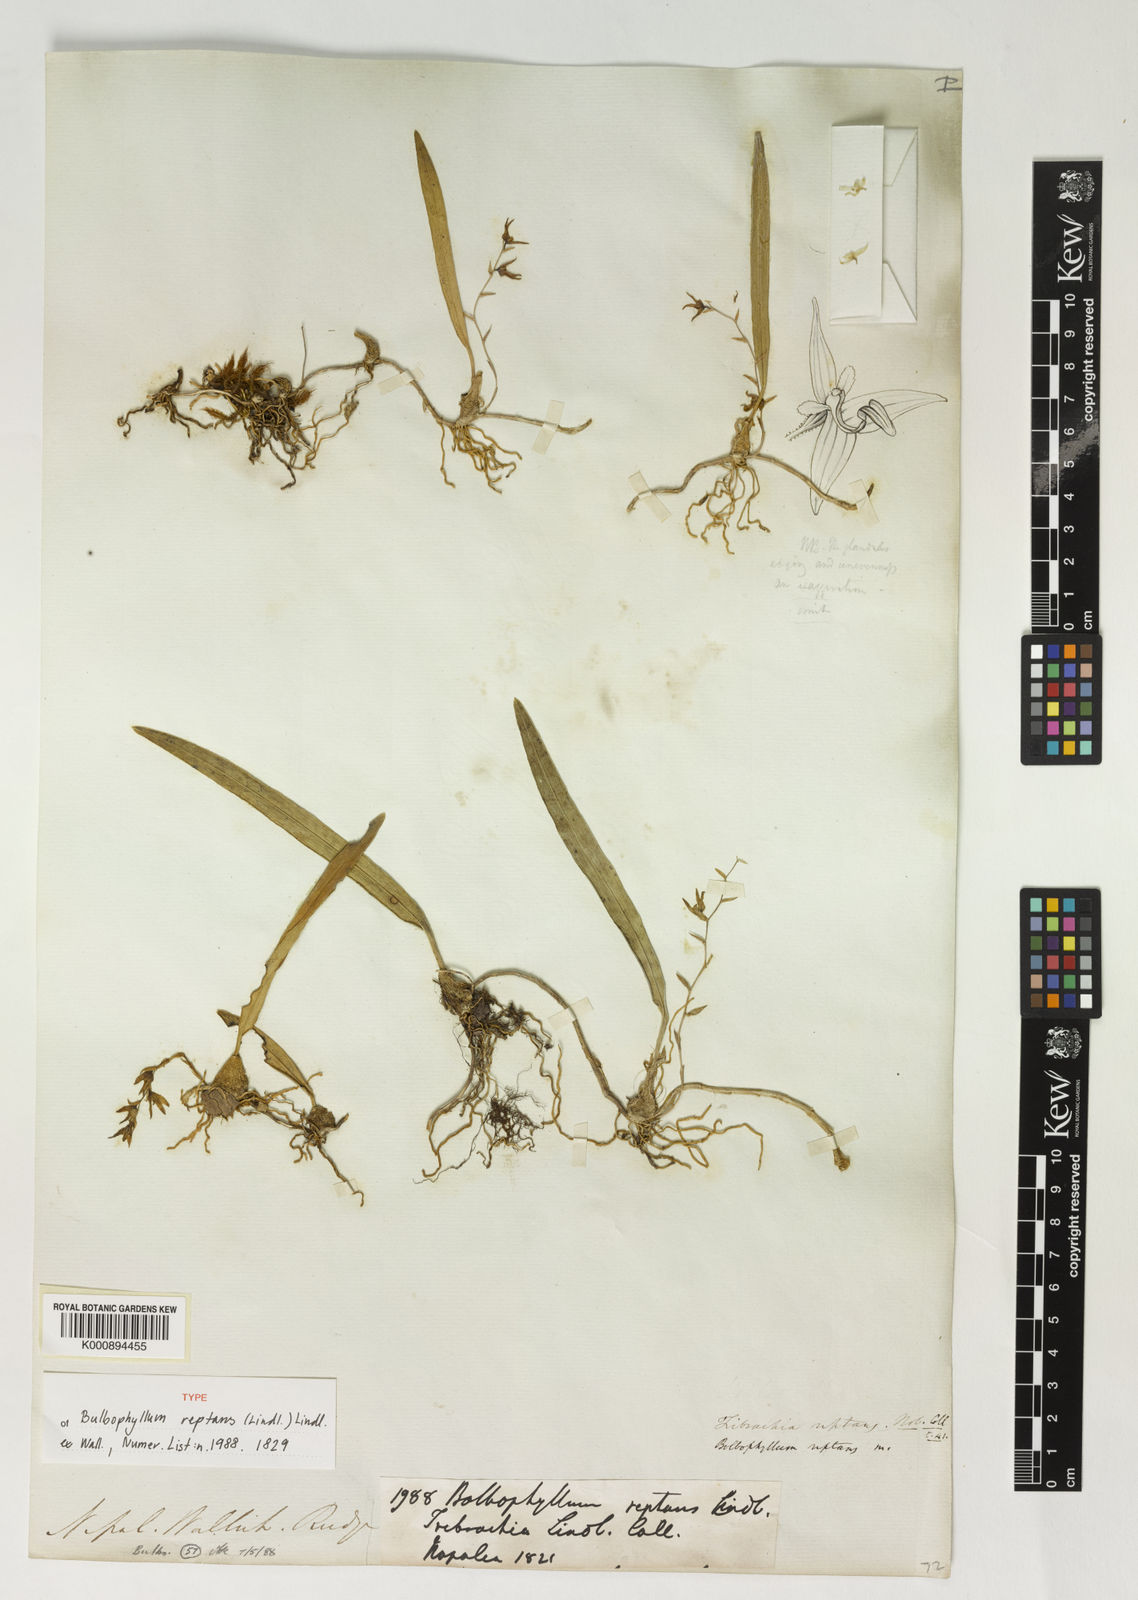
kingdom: Plantae
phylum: Tracheophyta
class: Liliopsida
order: Asparagales
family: Orchidaceae
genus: Bulbophyllum
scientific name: Bulbophyllum reptans
